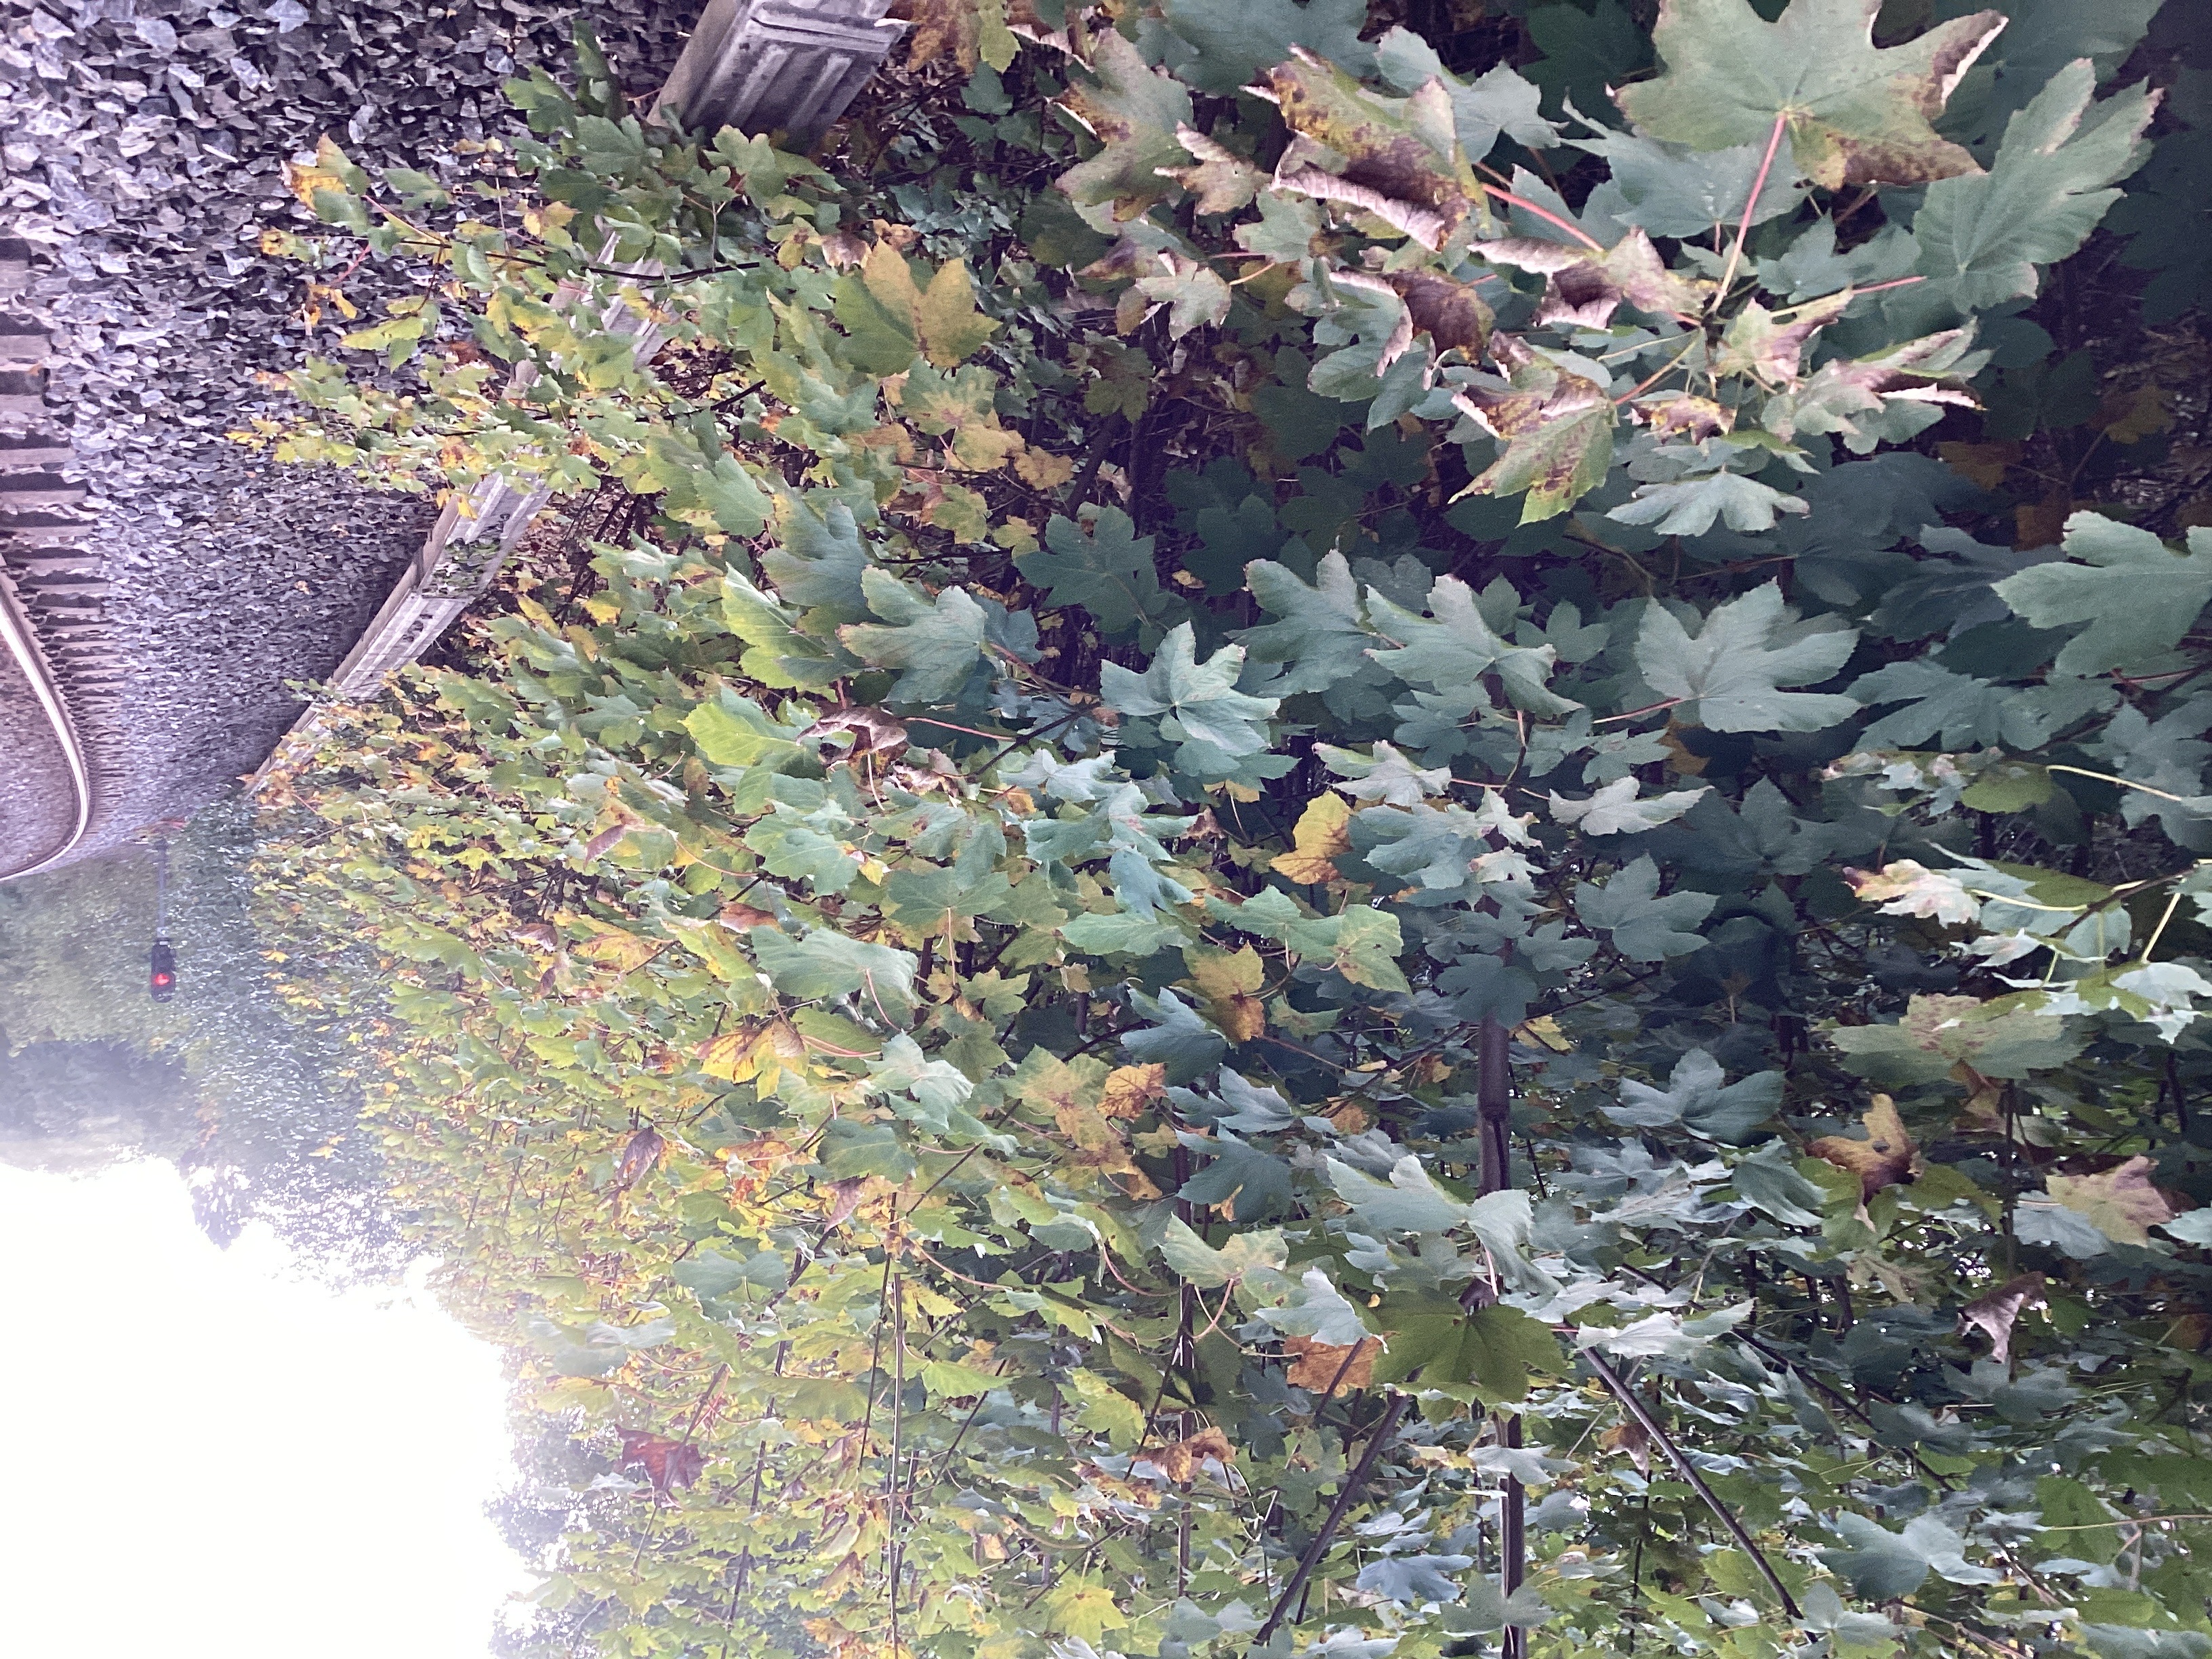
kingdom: Plantae
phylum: Tracheophyta
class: Magnoliopsida
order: Sapindales
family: Sapindaceae
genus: Acer
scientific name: Acer pseudoplatanus
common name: platanlønn
